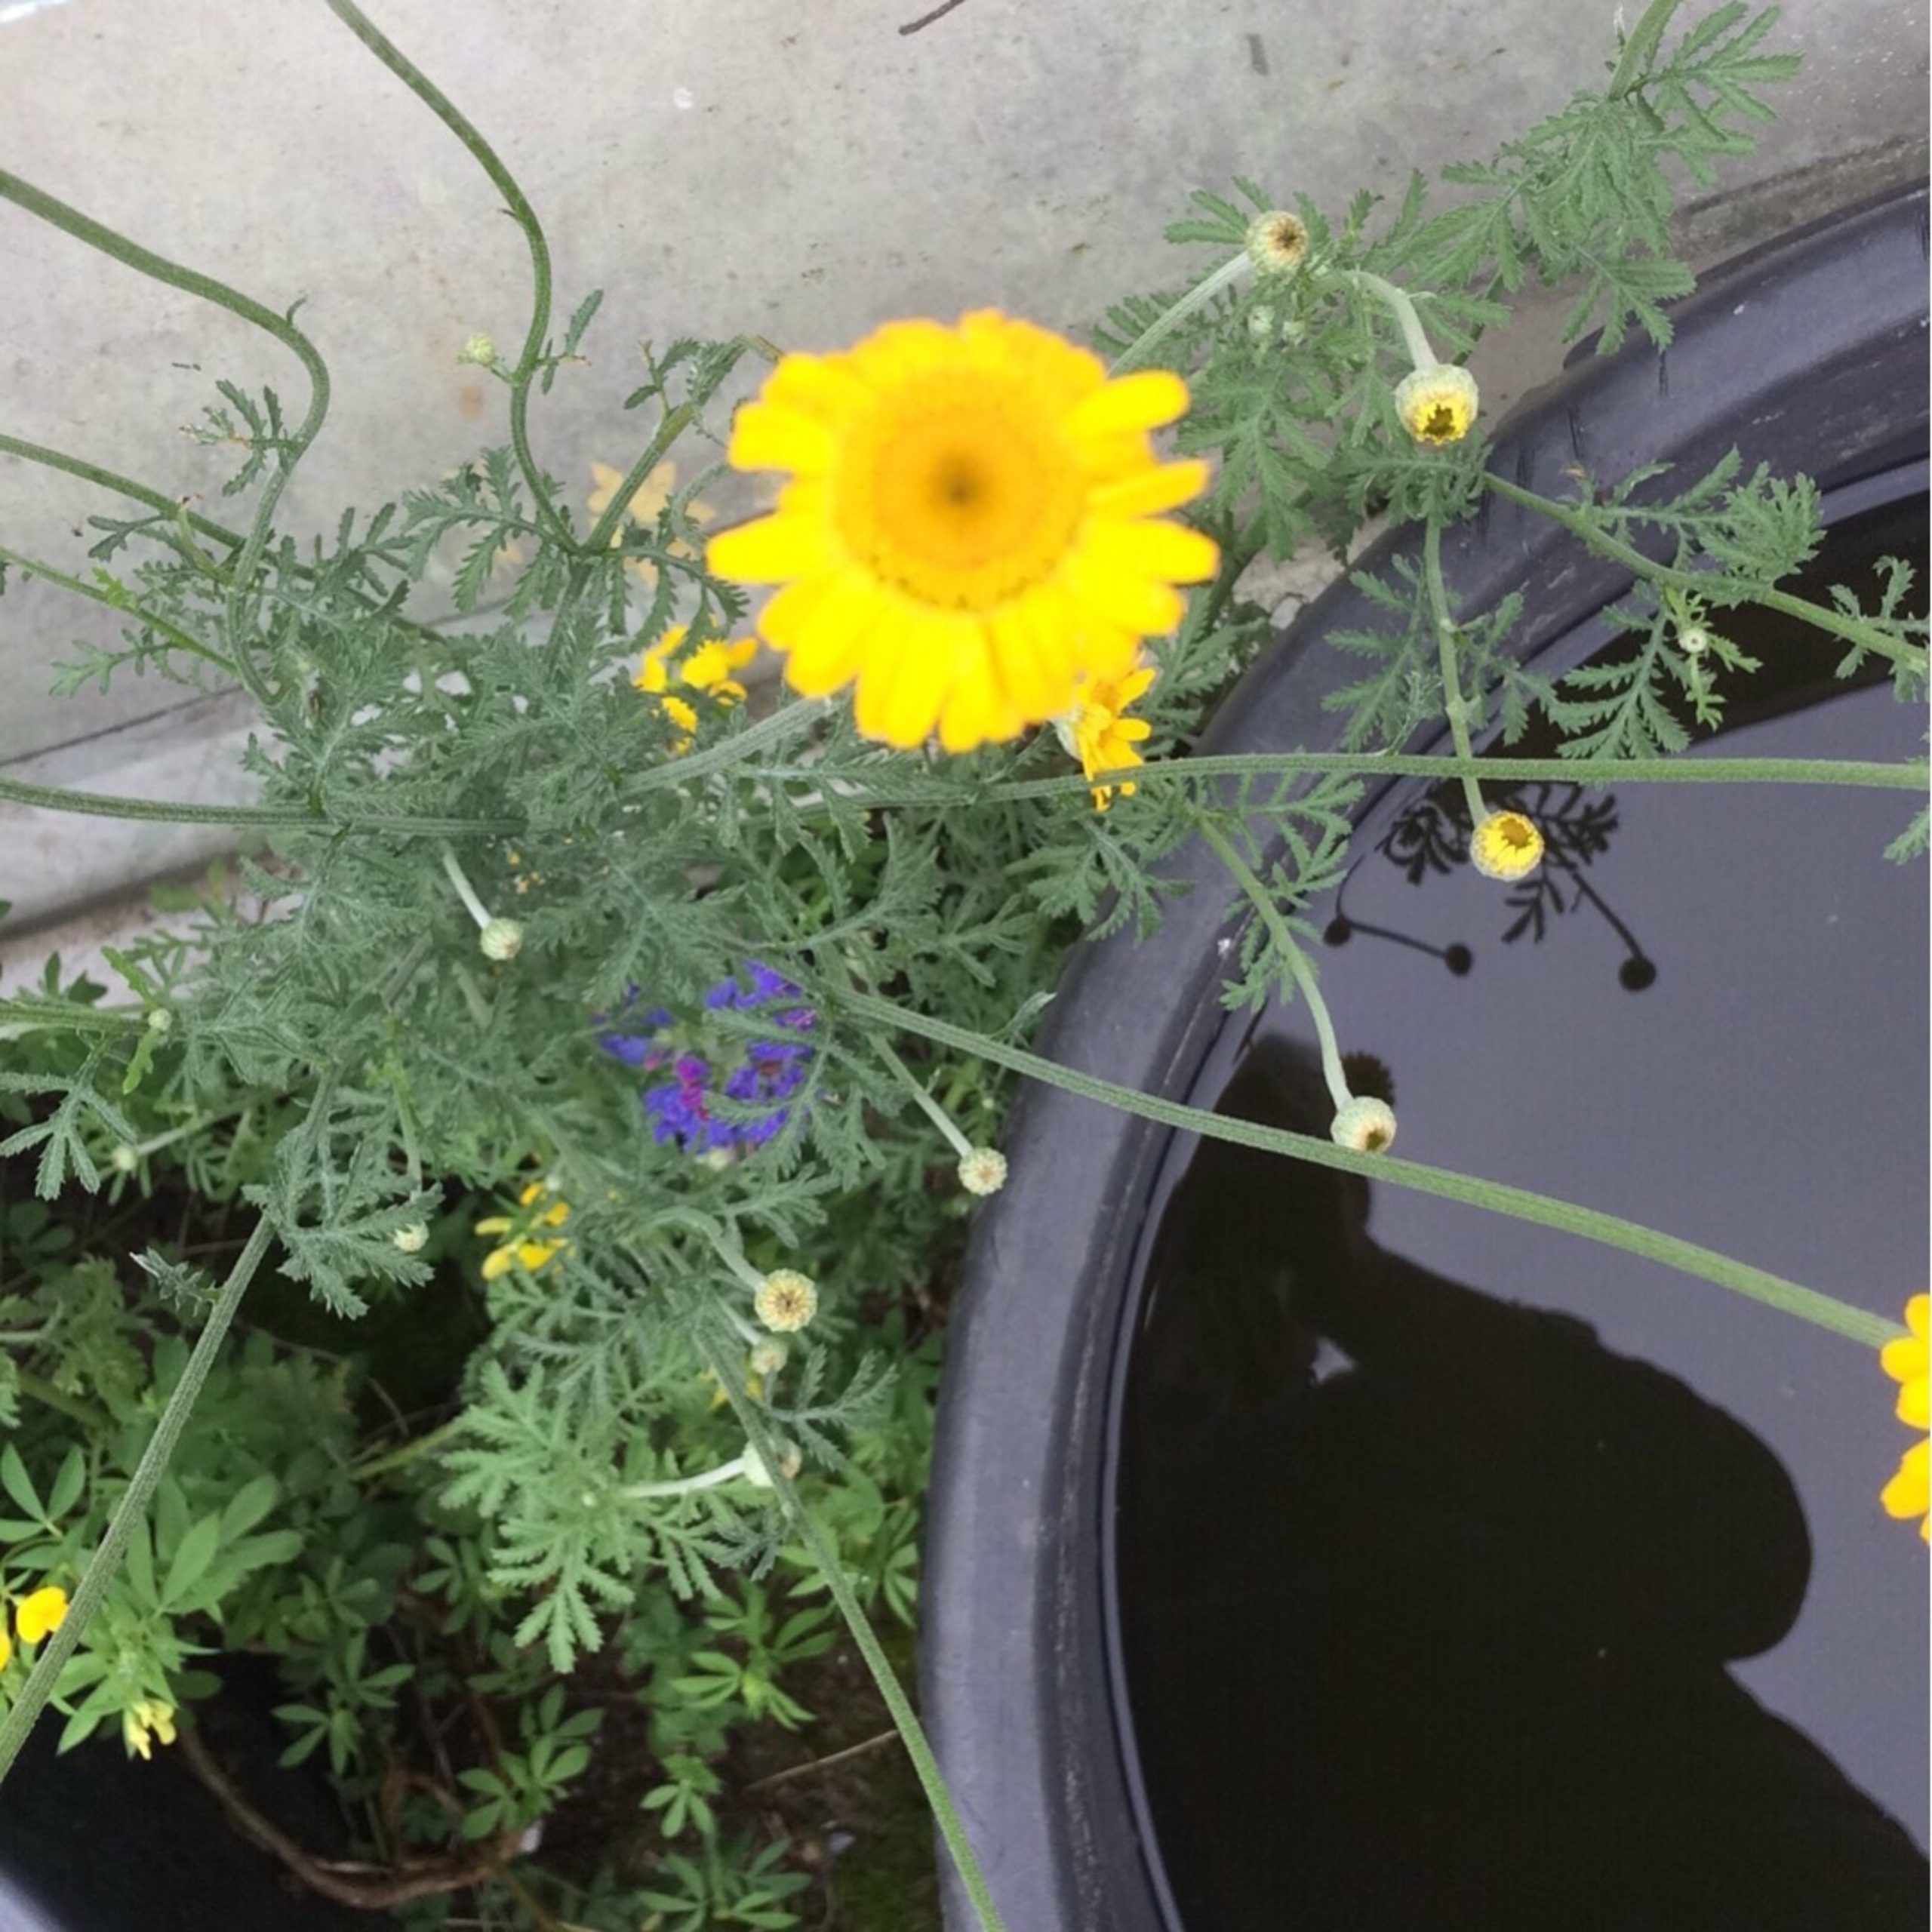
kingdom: Plantae
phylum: Tracheophyta
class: Magnoliopsida
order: Asterales
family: Asteraceae
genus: Cota
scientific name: Cota tinctoria
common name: Farve-gåseurt
